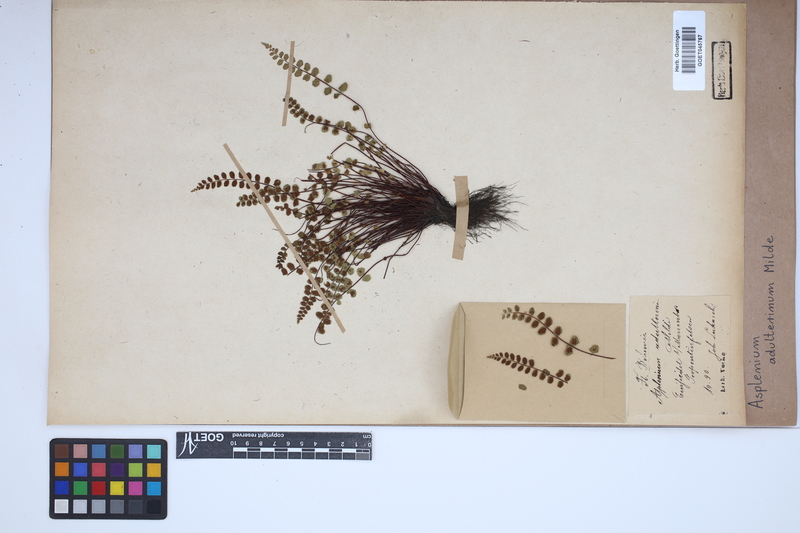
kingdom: Plantae
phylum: Tracheophyta
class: Polypodiopsida
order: Polypodiales
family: Aspleniaceae
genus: Asplenium
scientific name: Asplenium adulterinum
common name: Adulterated spleenwort
